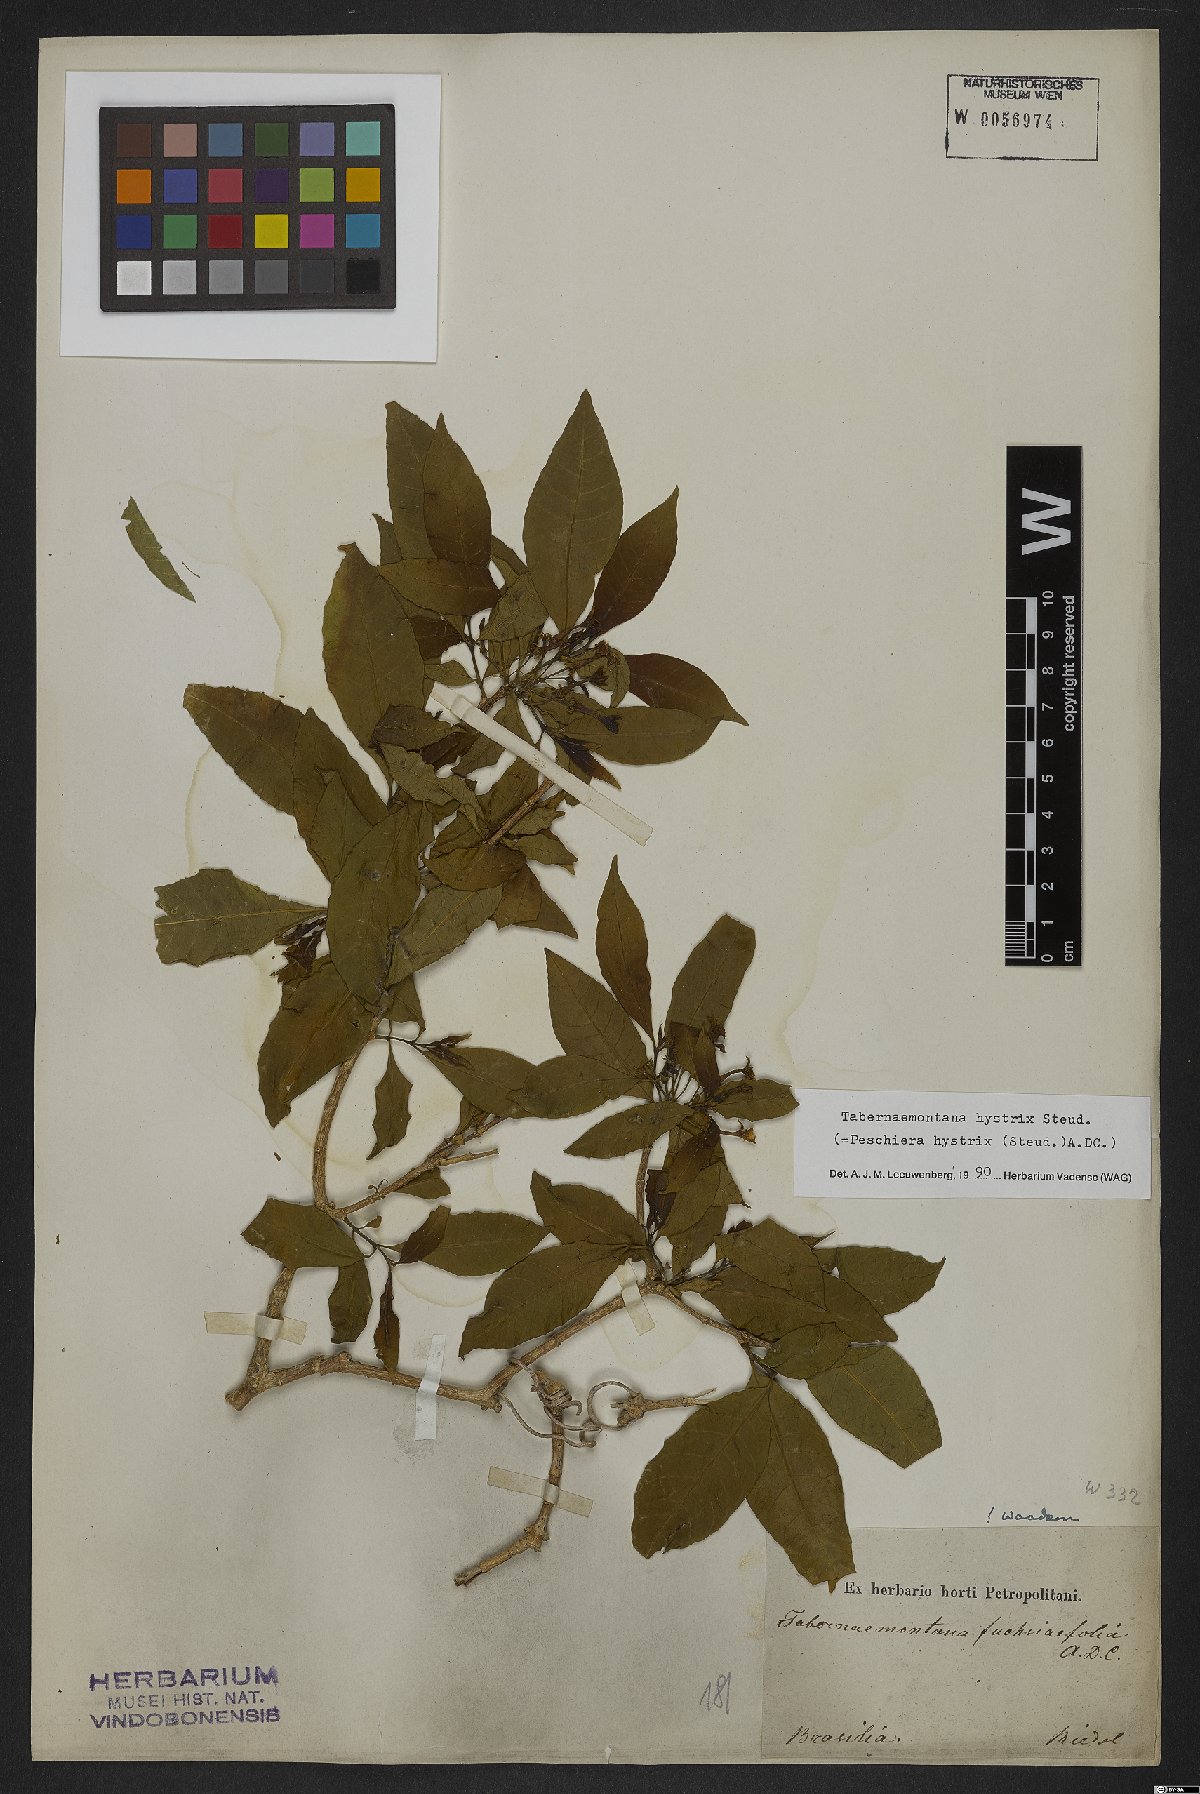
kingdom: Plantae
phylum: Tracheophyta
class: Magnoliopsida
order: Gentianales
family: Apocynaceae
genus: Tabernaemontana
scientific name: Tabernaemontana hystrix
